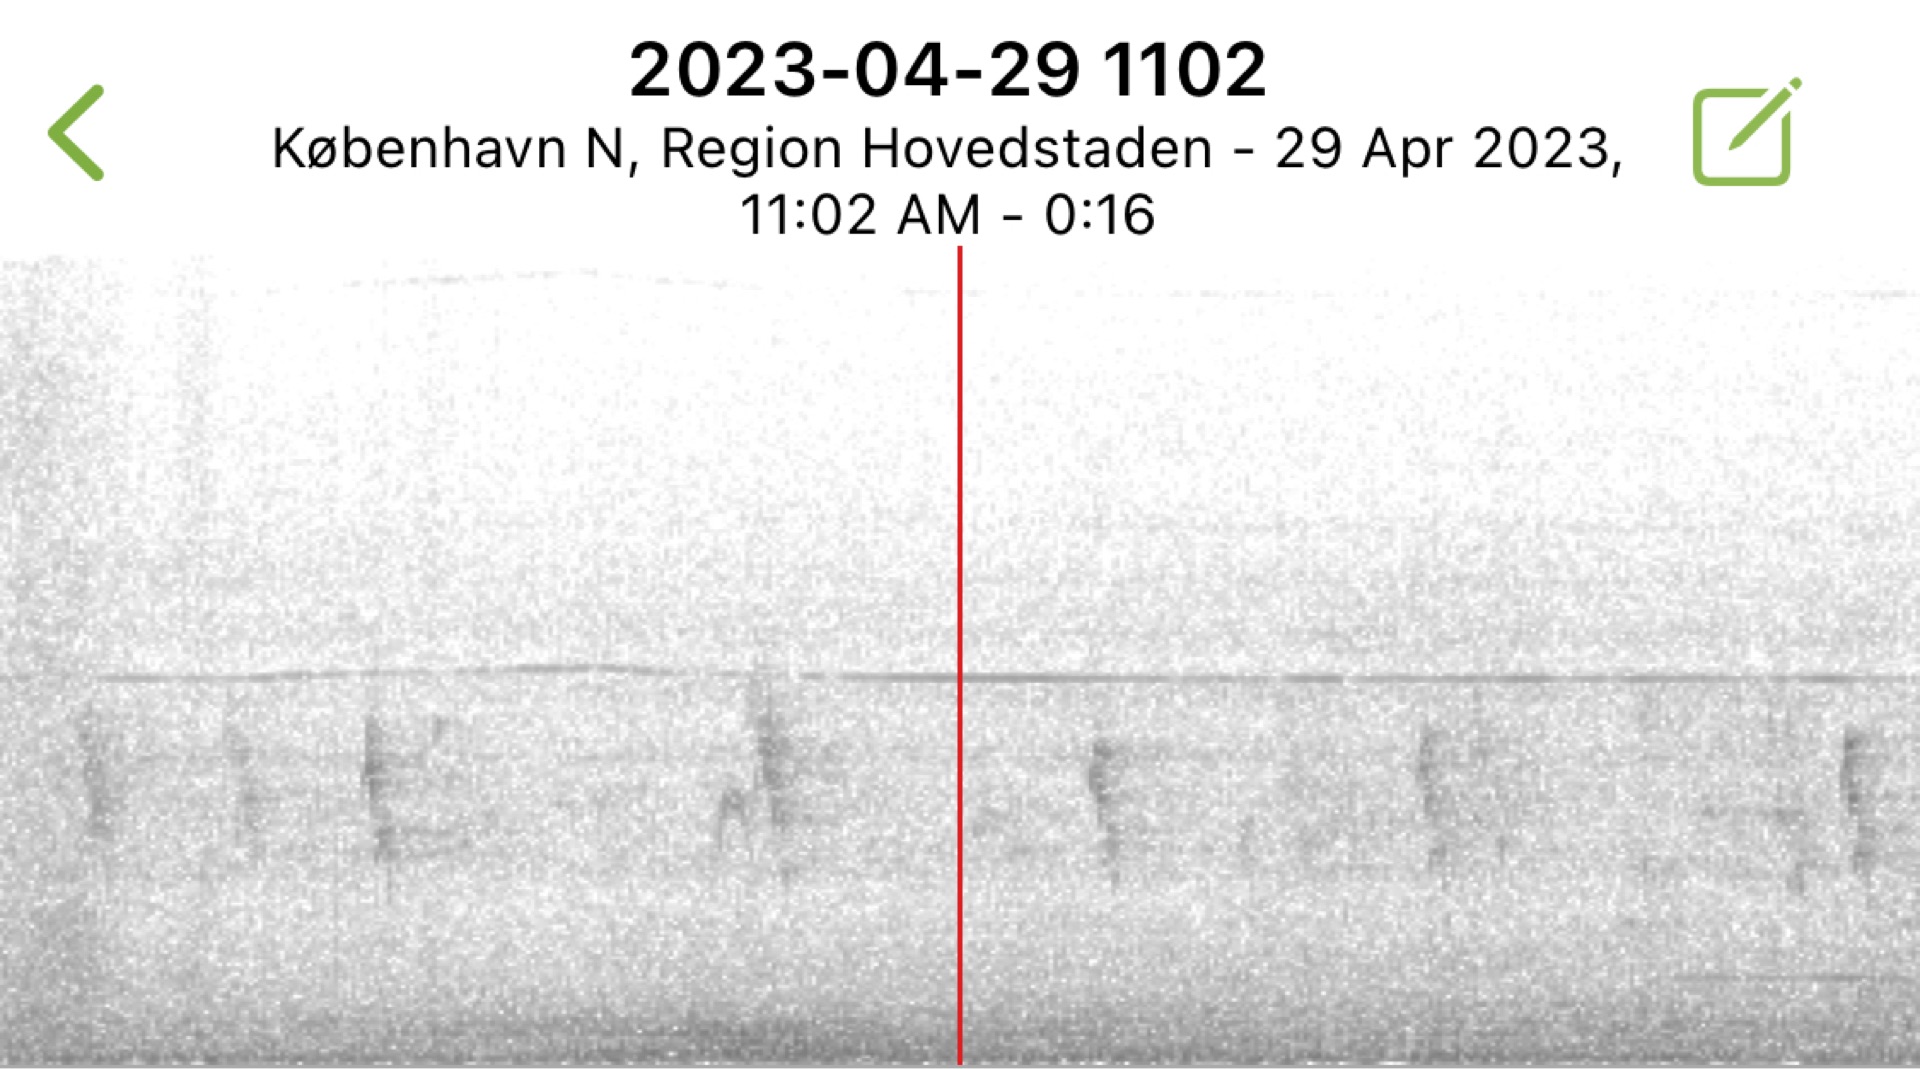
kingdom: Animalia
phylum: Chordata
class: Aves
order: Passeriformes
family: Passeridae
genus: Passer
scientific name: Passer domesticus
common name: Gråspurv
